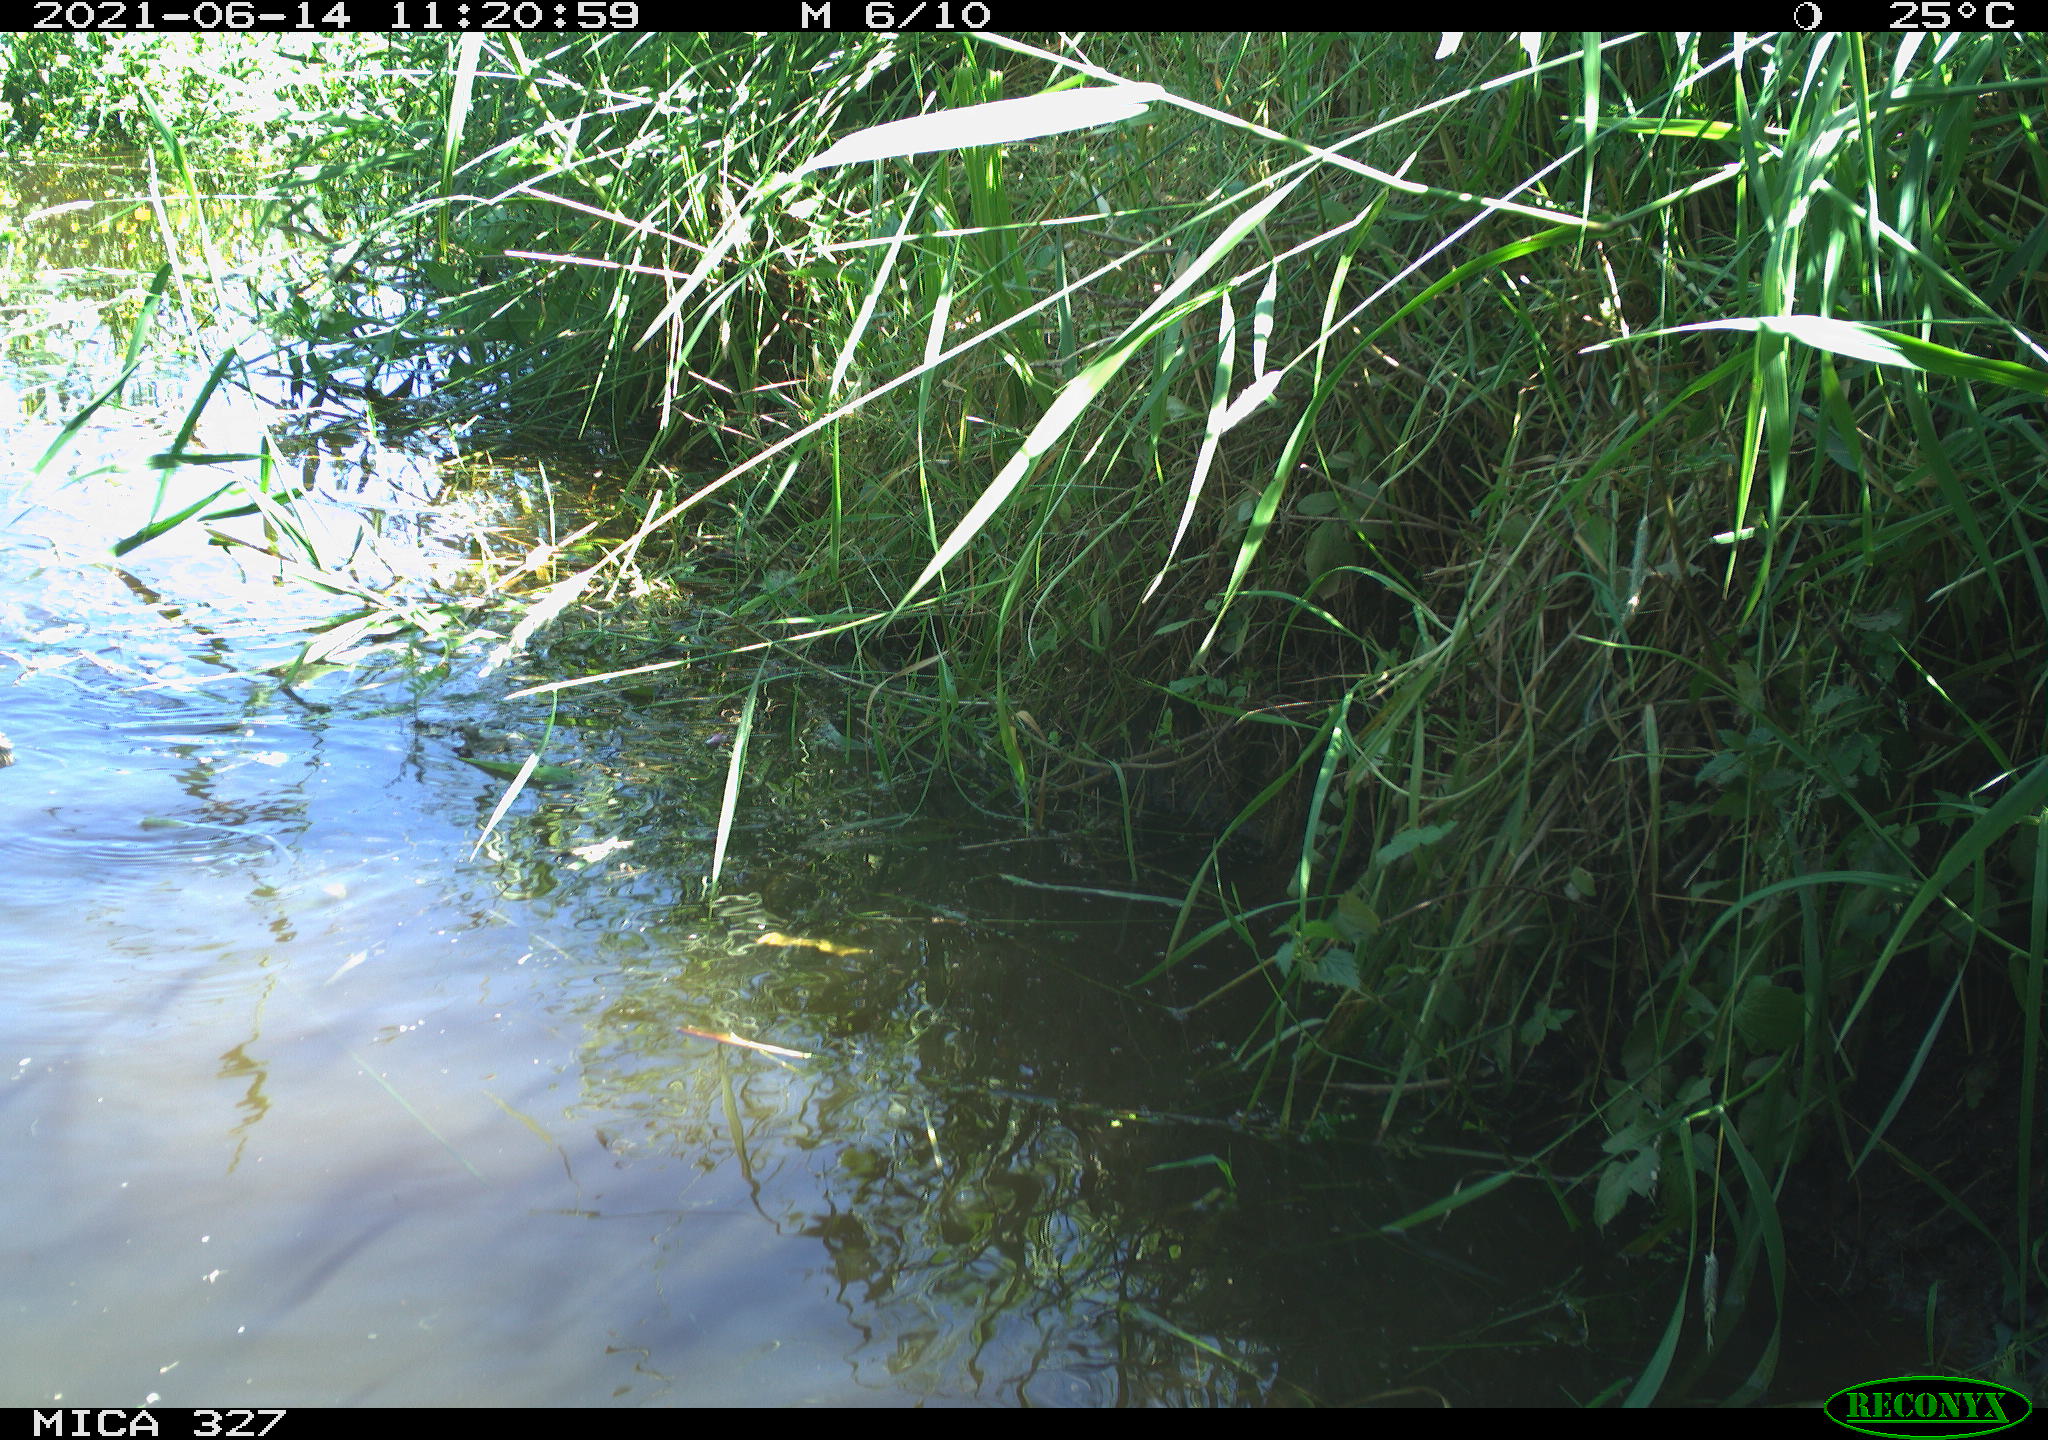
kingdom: Animalia
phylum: Chordata
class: Aves
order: Anseriformes
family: Anatidae
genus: Anas
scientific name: Anas platyrhynchos
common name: Mallard
